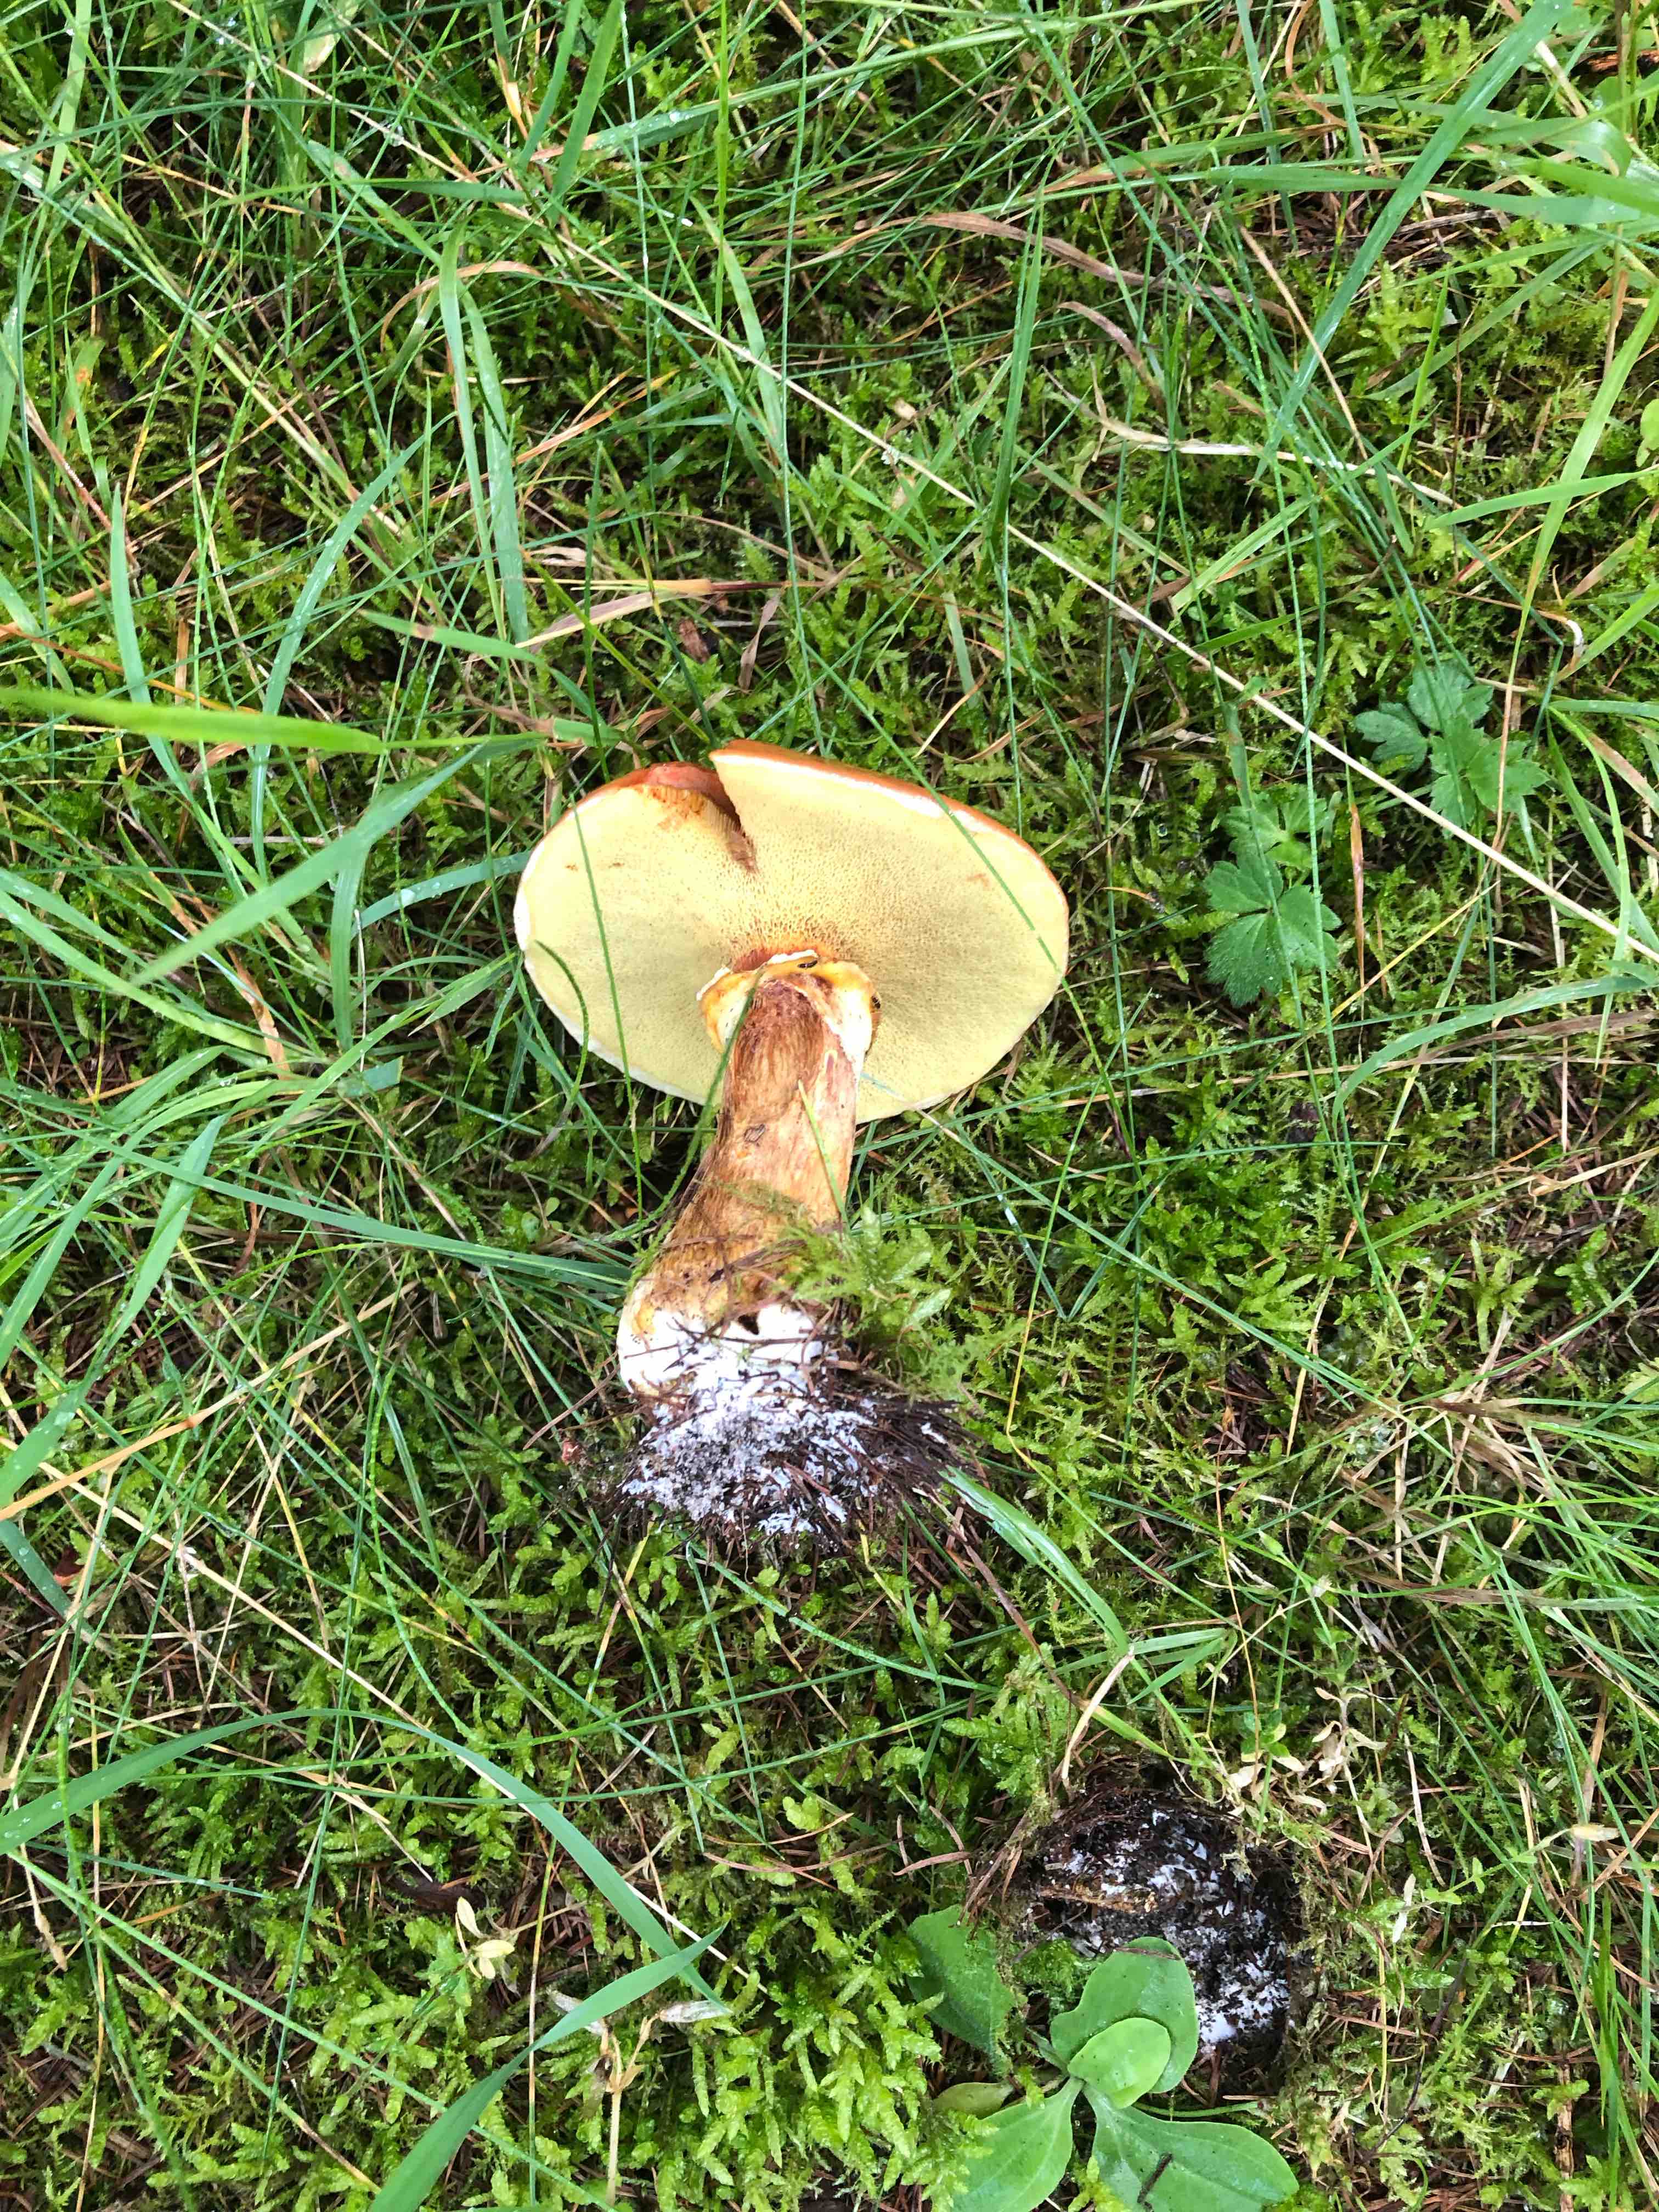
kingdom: Fungi
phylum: Basidiomycota
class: Agaricomycetes
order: Boletales
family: Boletaceae
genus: Imleria
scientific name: Imleria badia
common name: brunstokket rørhat
